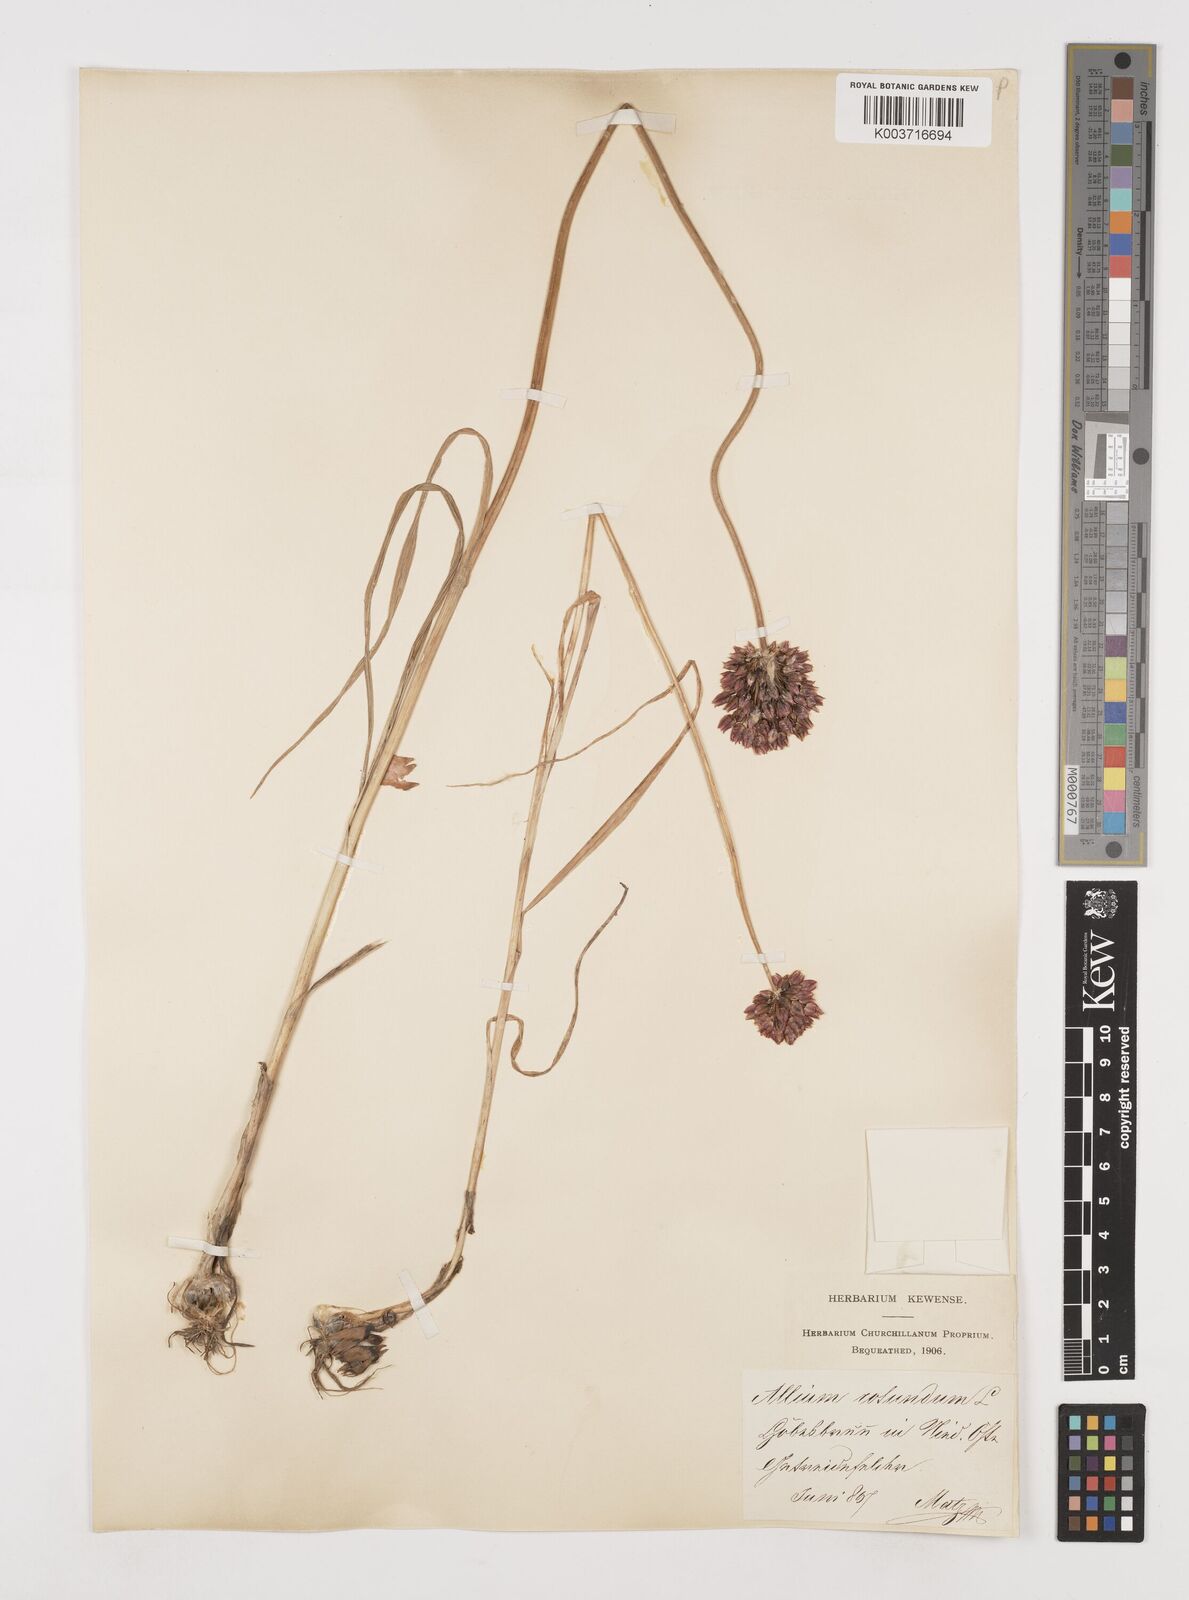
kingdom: Plantae
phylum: Tracheophyta
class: Liliopsida
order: Asparagales
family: Amaryllidaceae
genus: Allium
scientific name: Allium rotundum
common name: Sand leek
